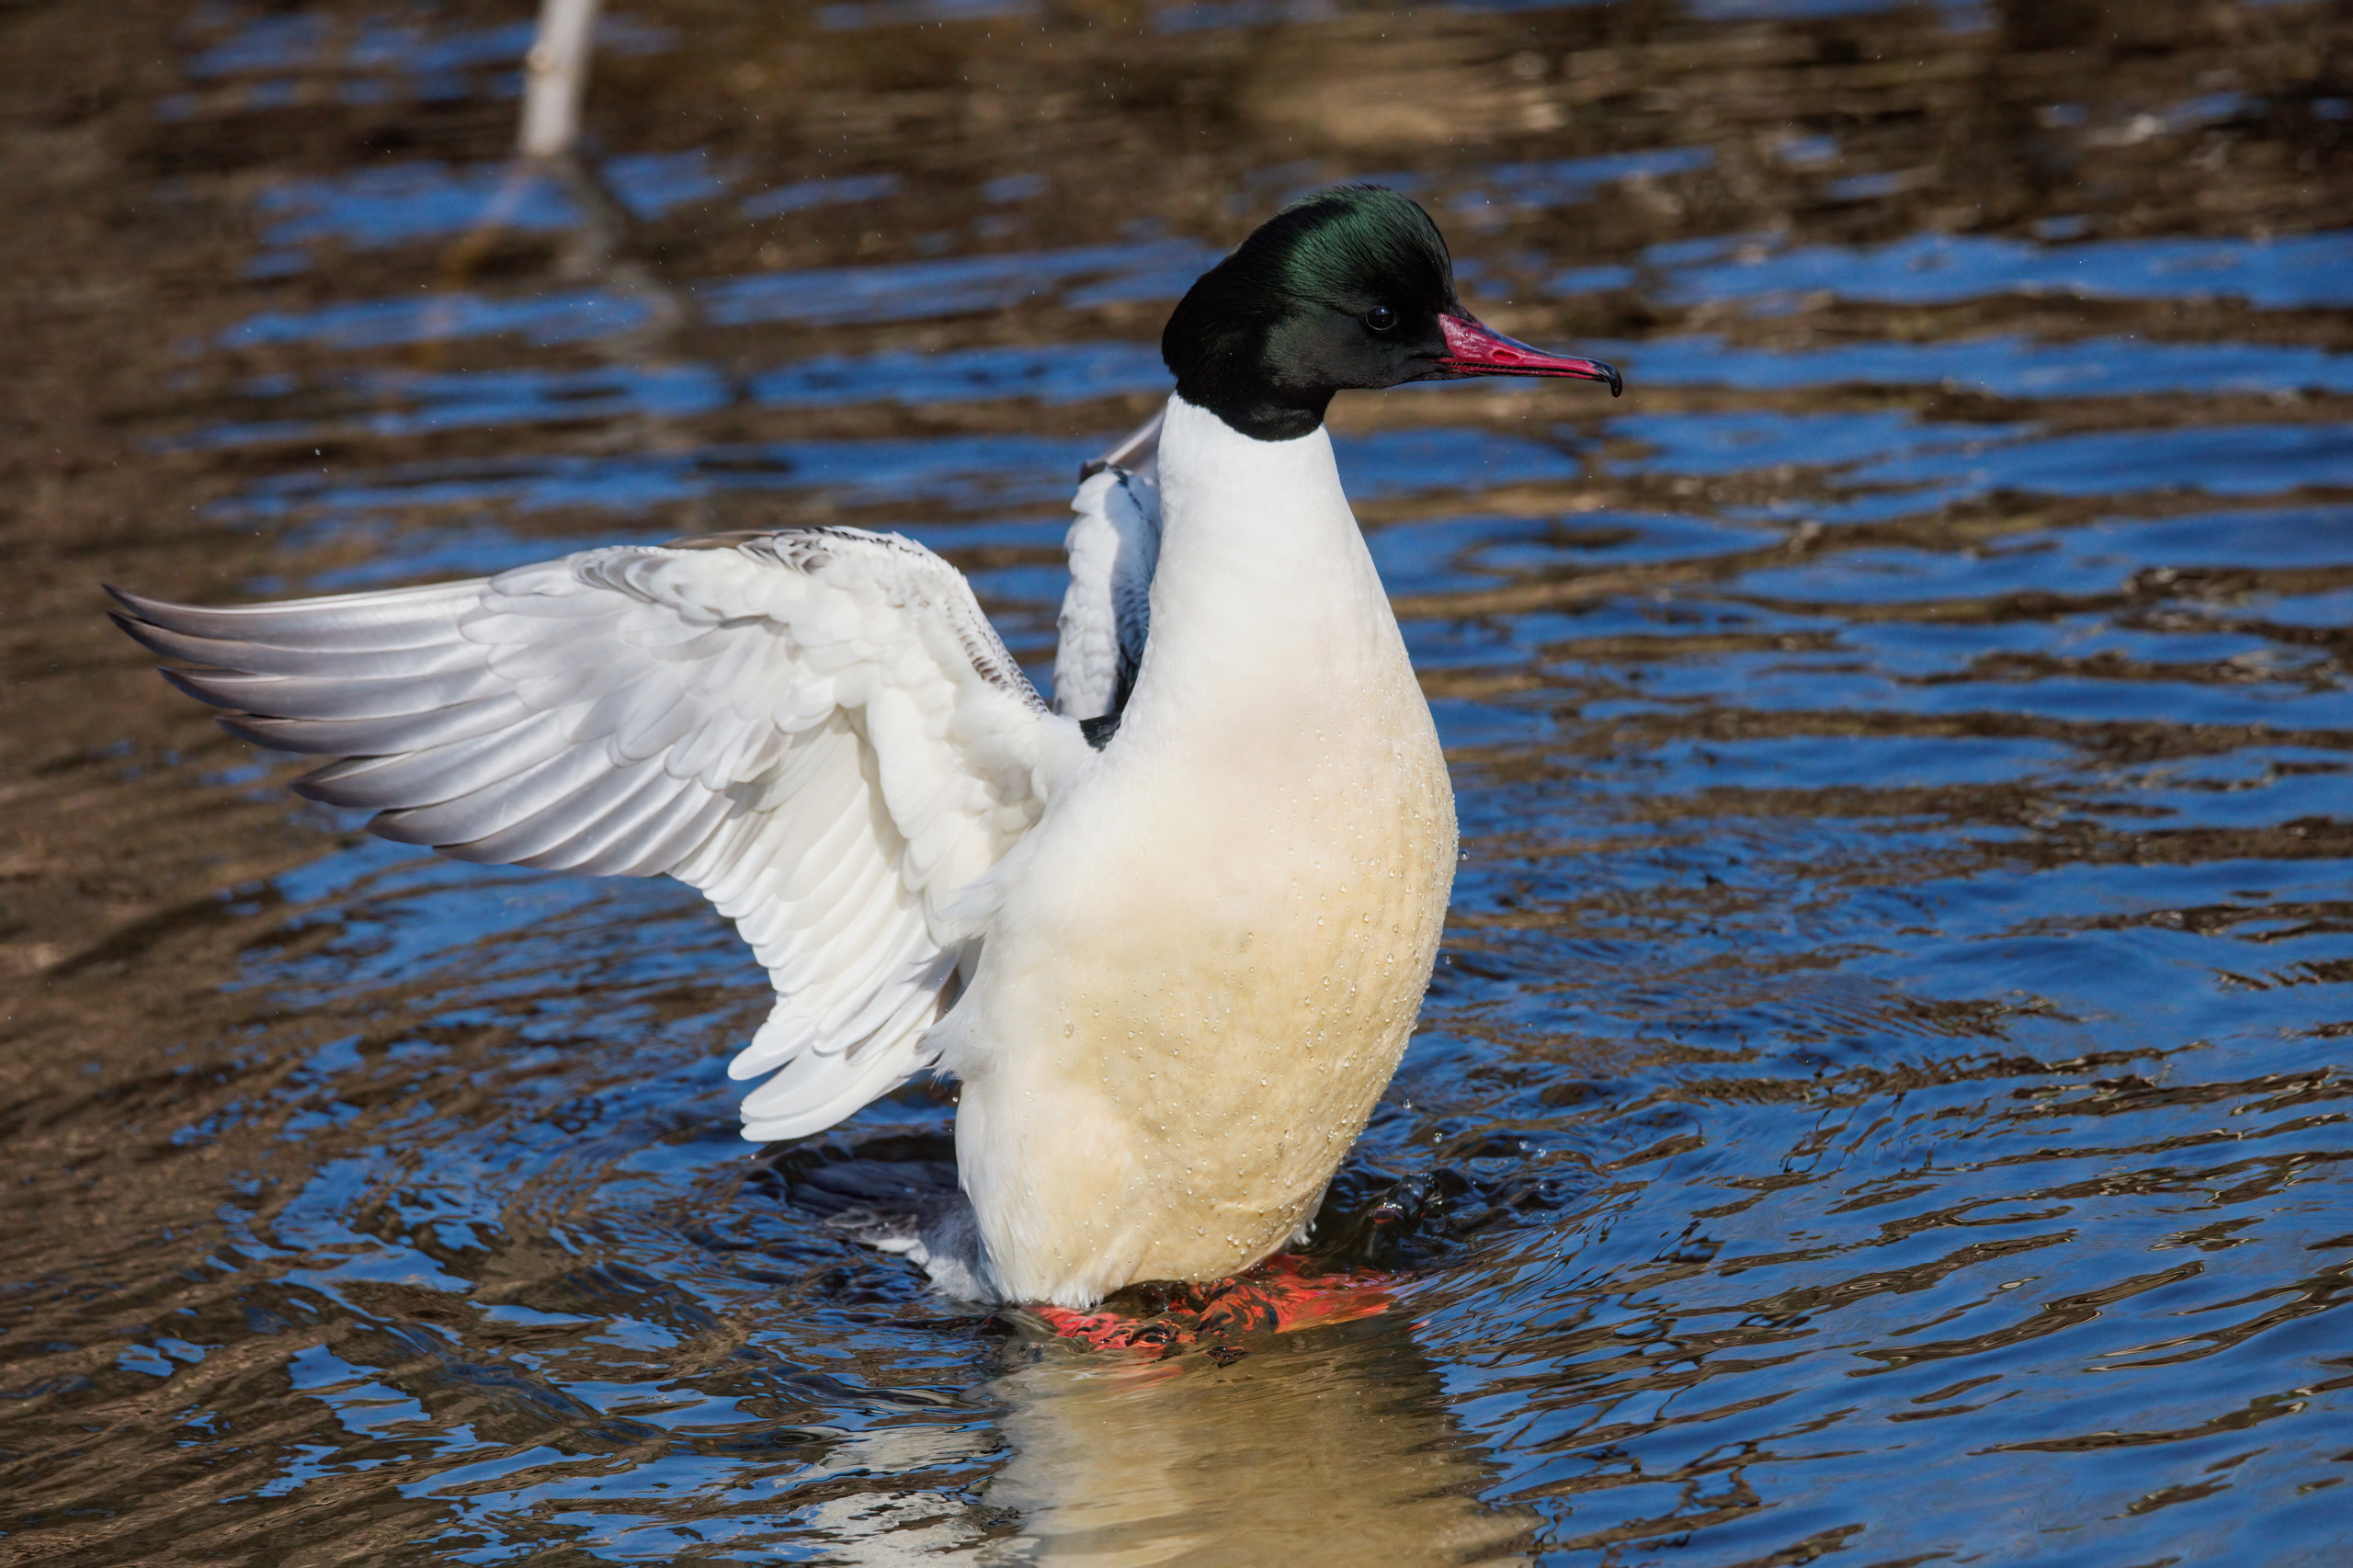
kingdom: Animalia
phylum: Chordata
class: Aves
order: Anseriformes
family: Anatidae
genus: Mergus
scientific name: Mergus merganser
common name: Stor skallesluger
